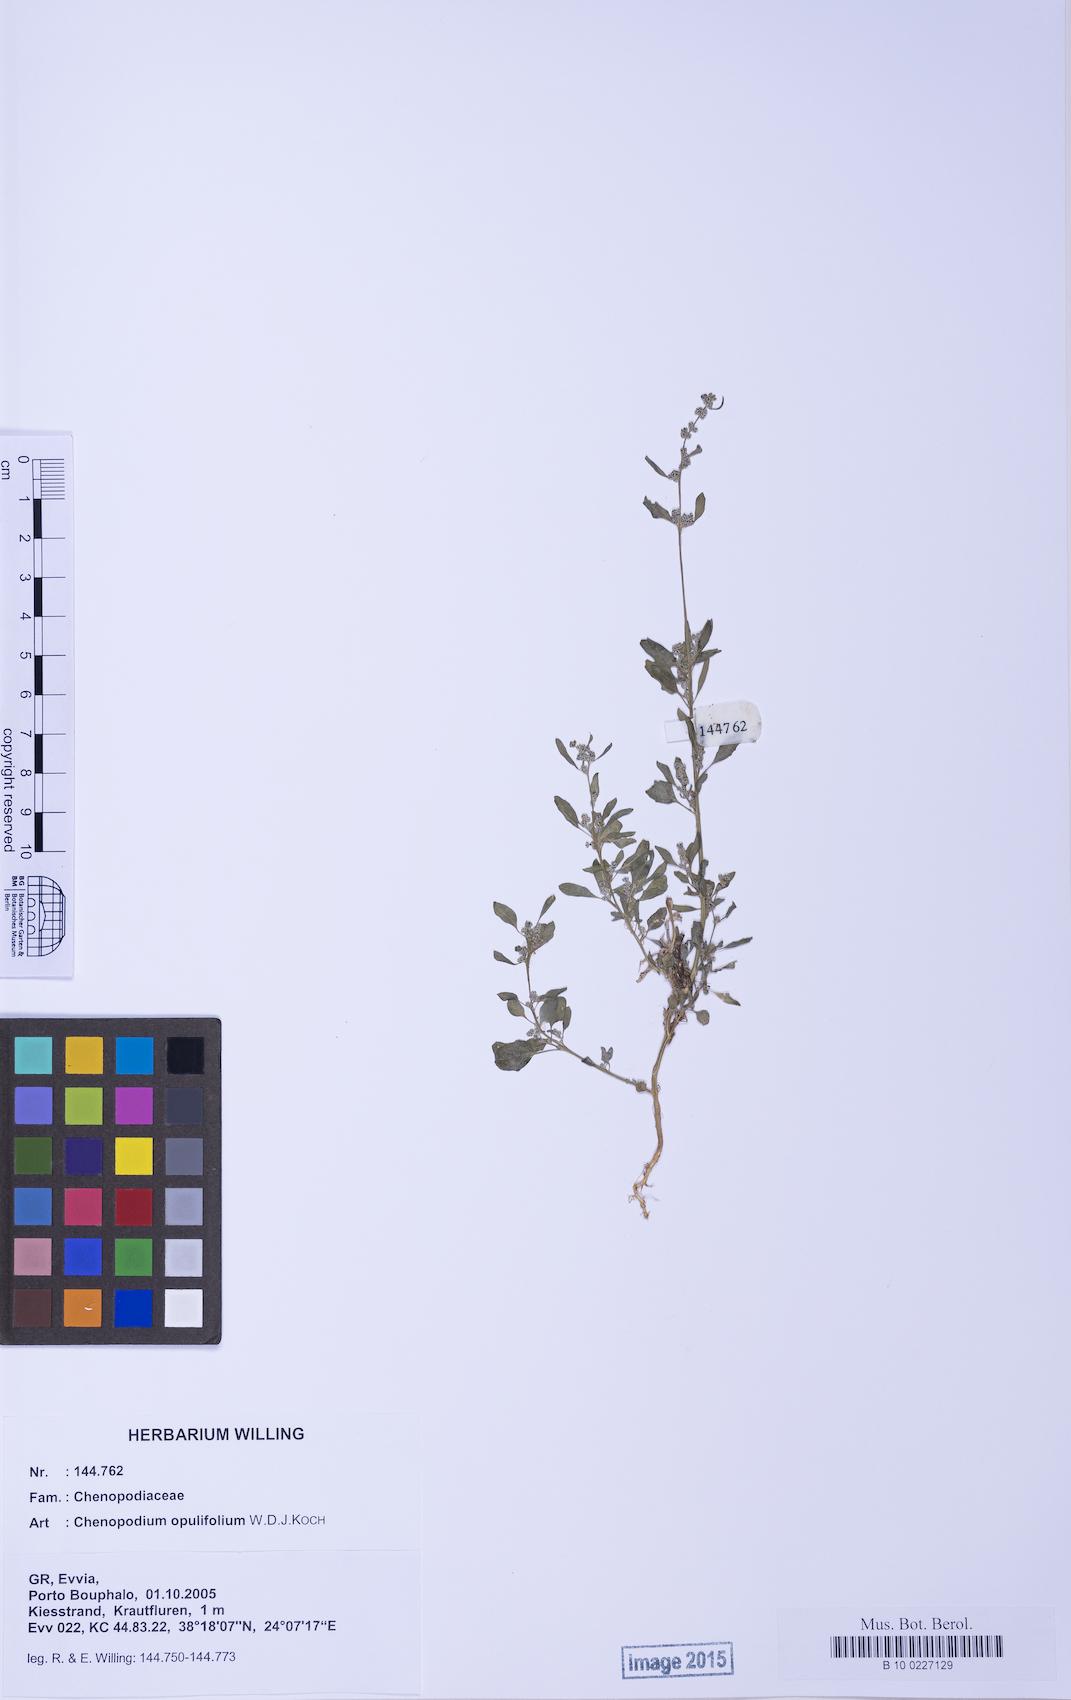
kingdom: Plantae
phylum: Tracheophyta
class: Magnoliopsida
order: Caryophyllales
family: Amaranthaceae
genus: Chenopodium
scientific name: Chenopodium opulifolium
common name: Grey goosefoot
